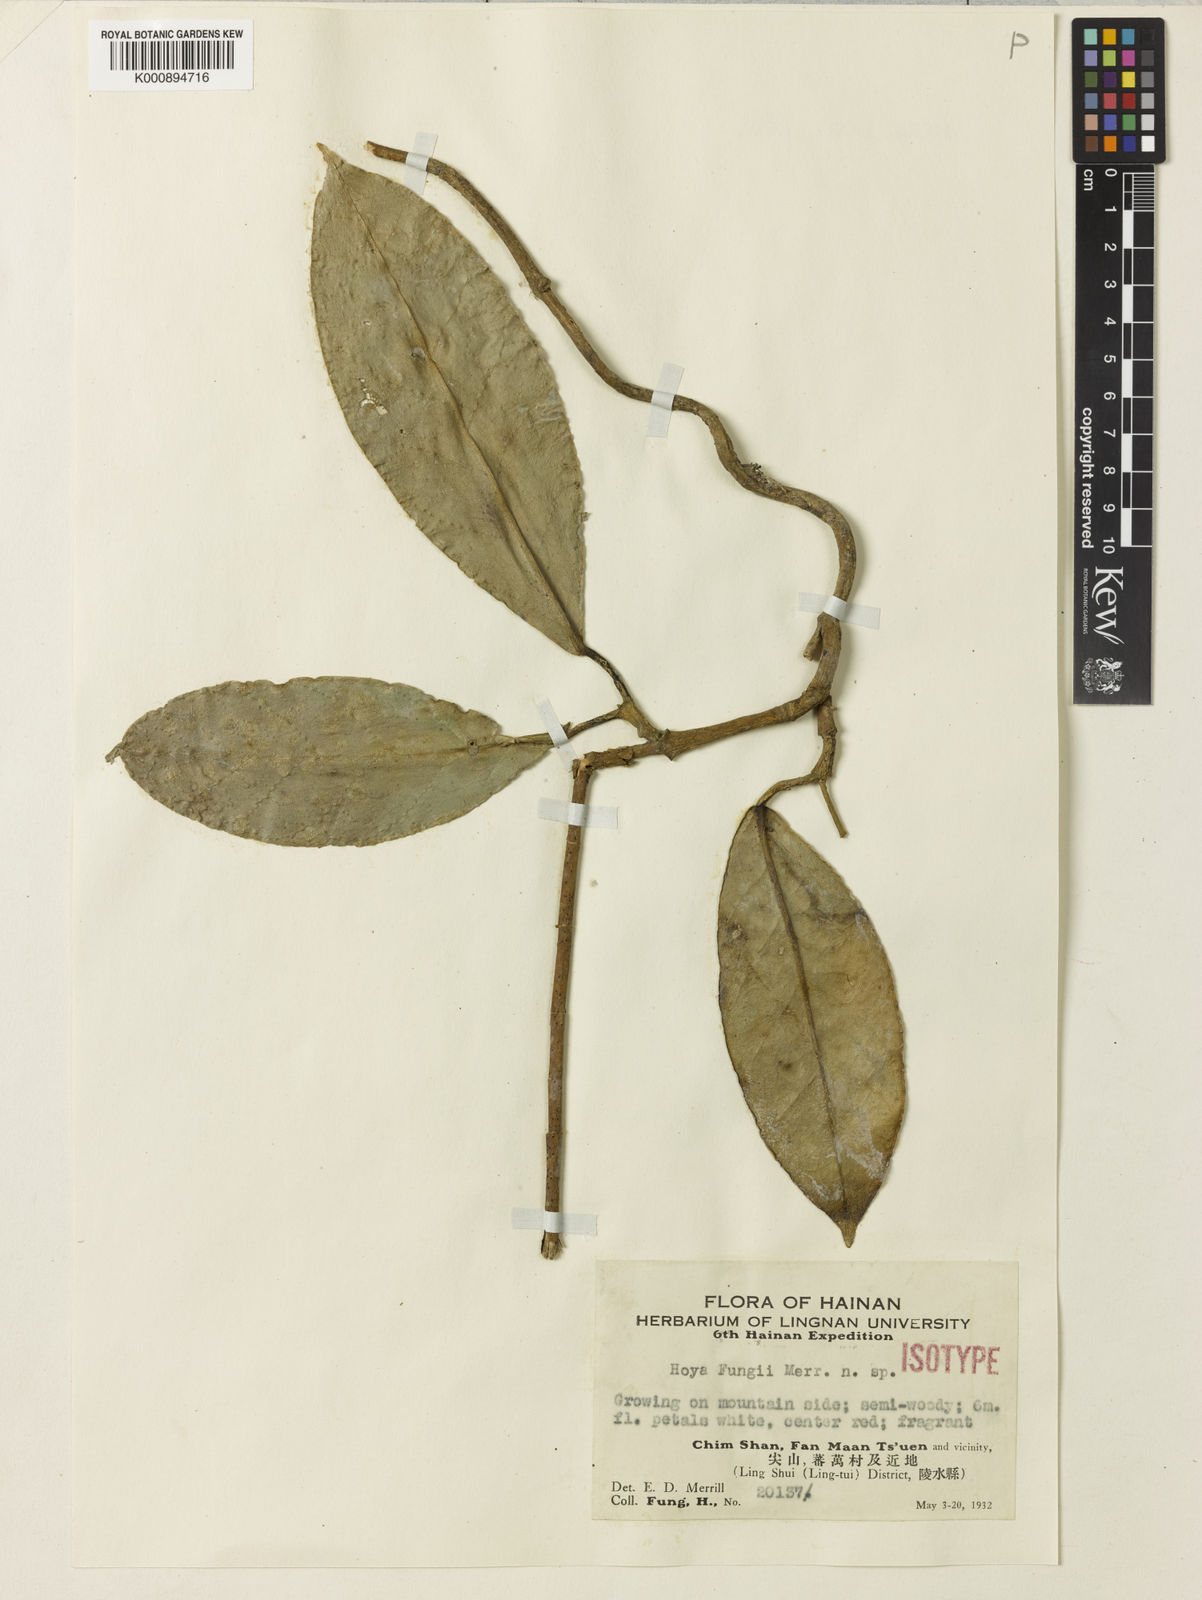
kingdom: Plantae
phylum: Tracheophyta
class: Magnoliopsida
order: Gentianales
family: Apocynaceae
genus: Hoya
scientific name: Hoya fungii
